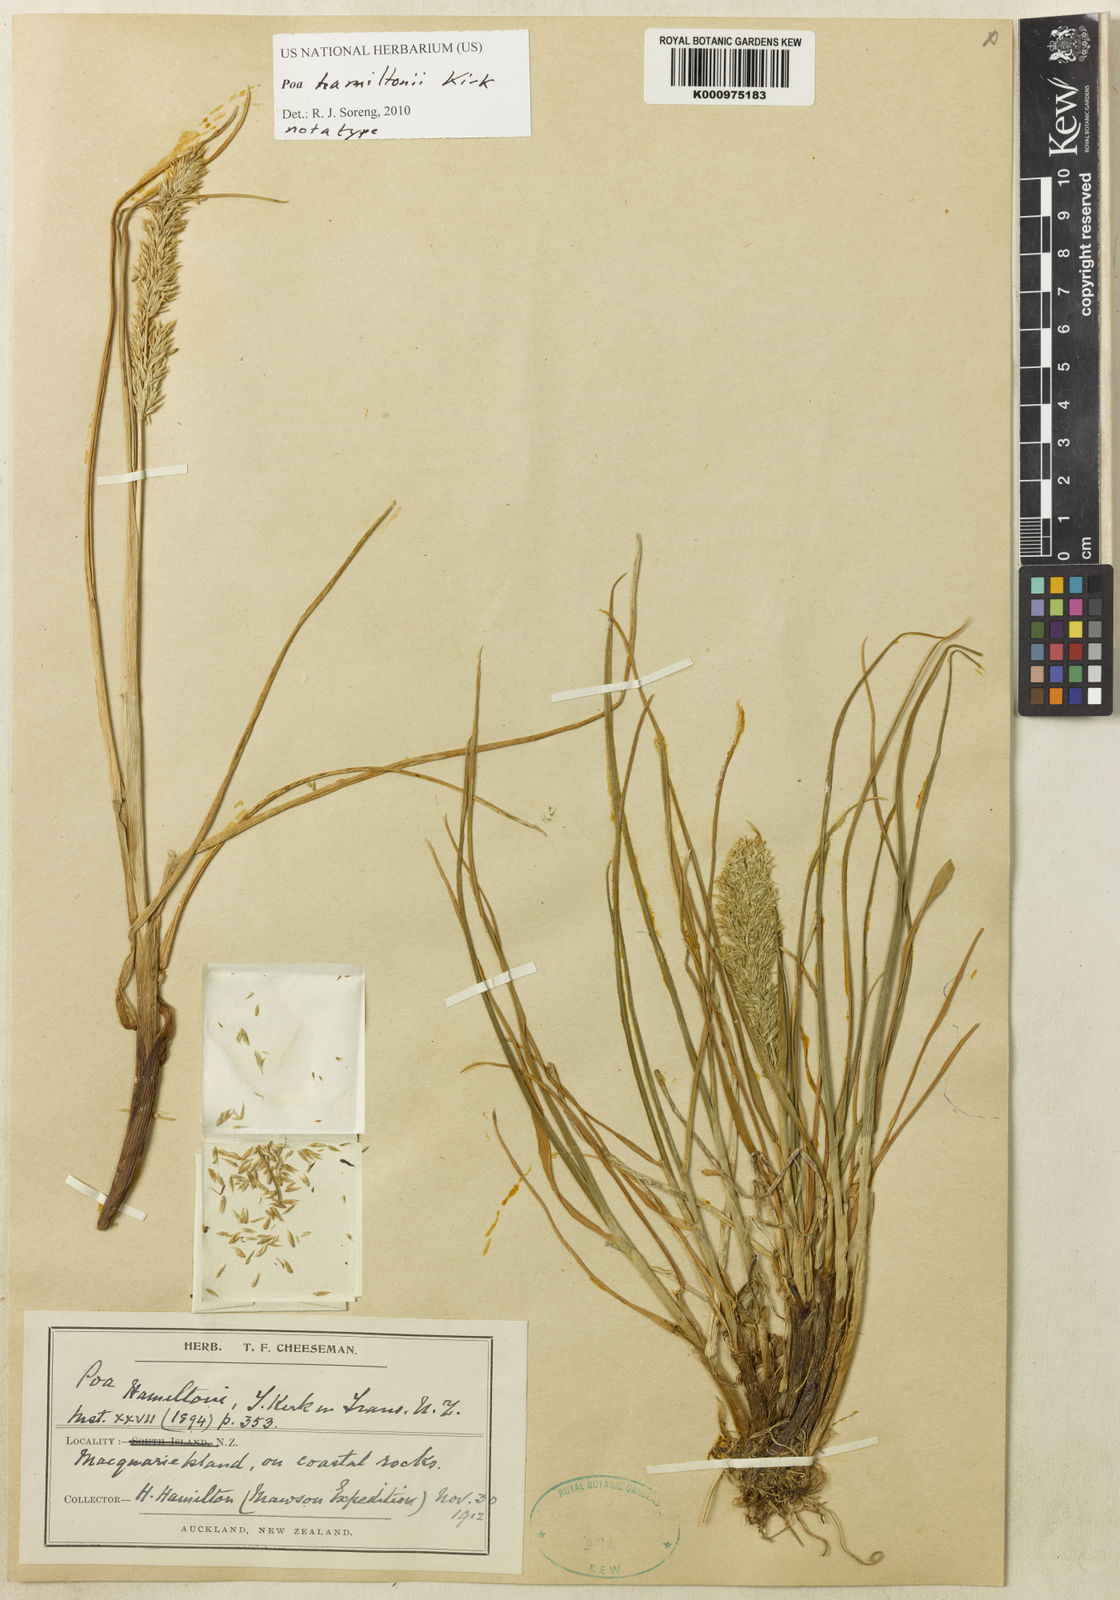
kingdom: Plantae
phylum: Tracheophyta
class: Liliopsida
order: Poales
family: Poaceae
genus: Poa
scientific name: Poa cookii
